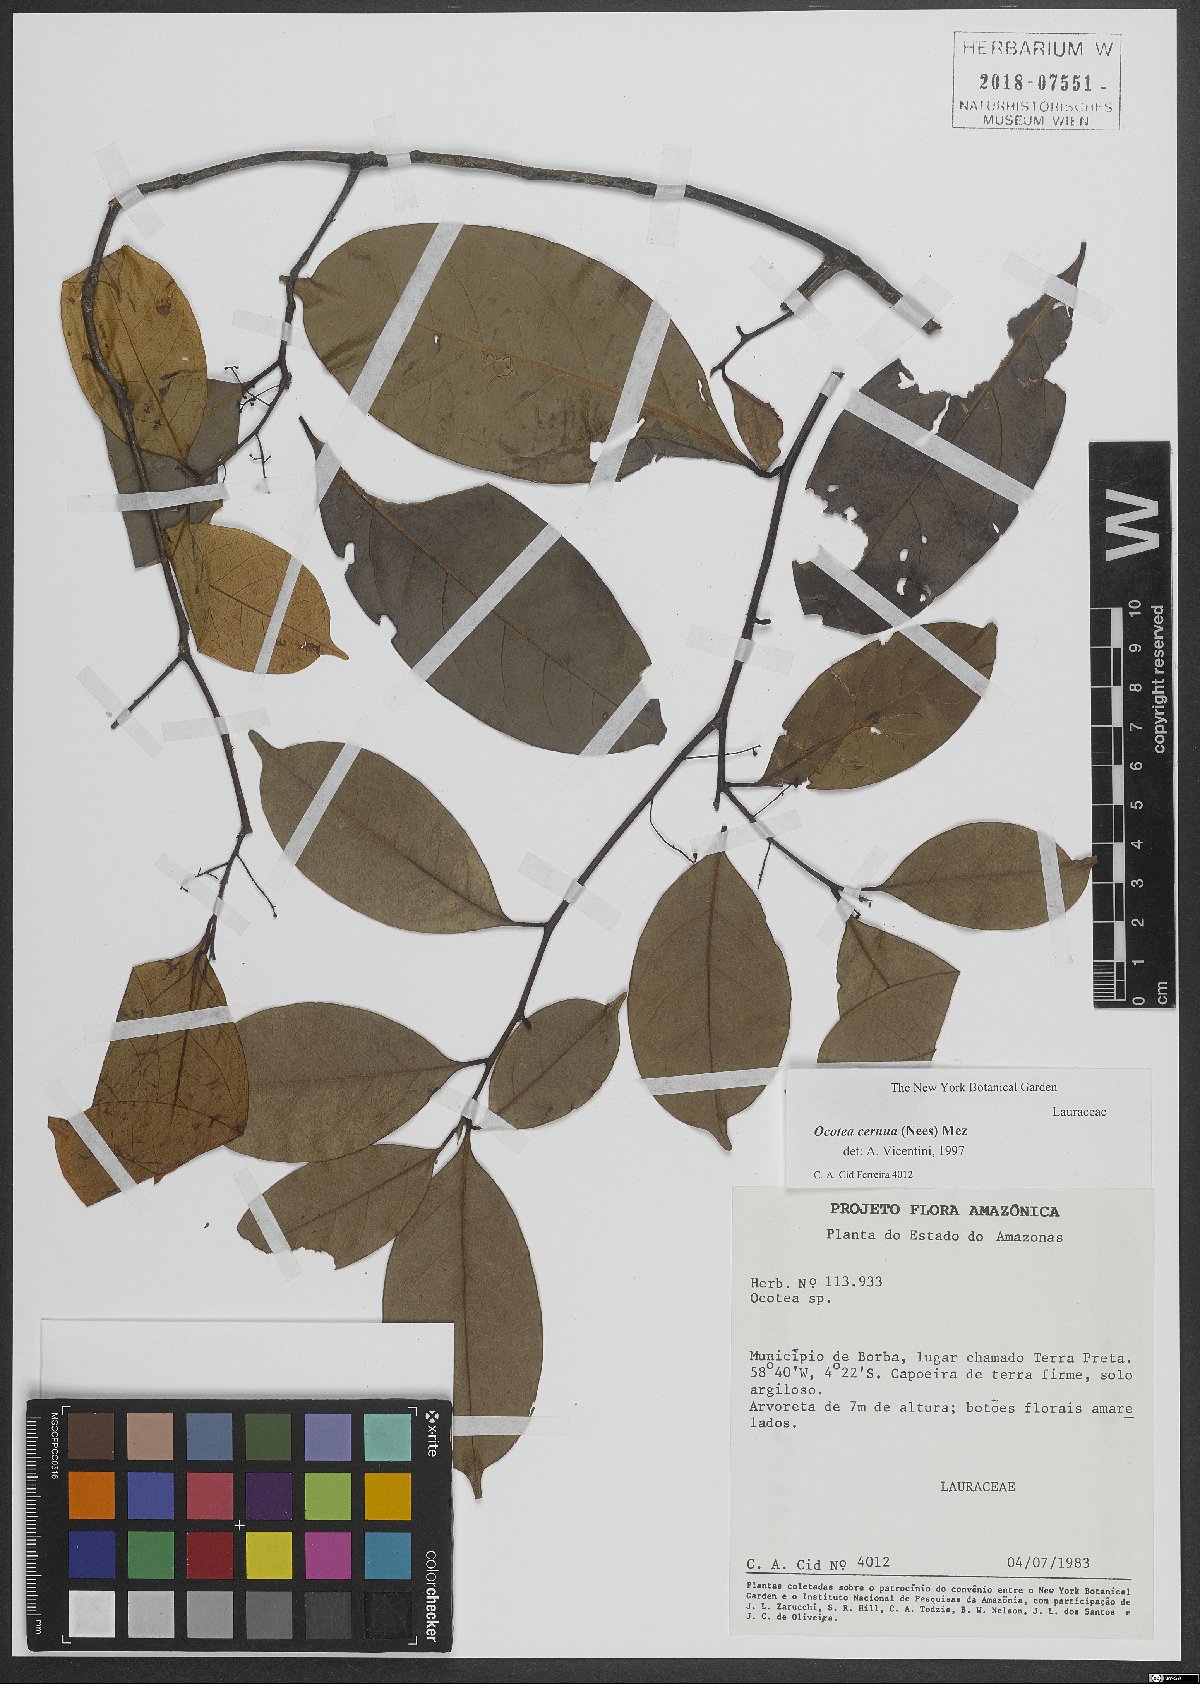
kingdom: Plantae
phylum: Tracheophyta
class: Magnoliopsida
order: Laurales
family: Lauraceae
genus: Ocotea
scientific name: Ocotea leptobotra
